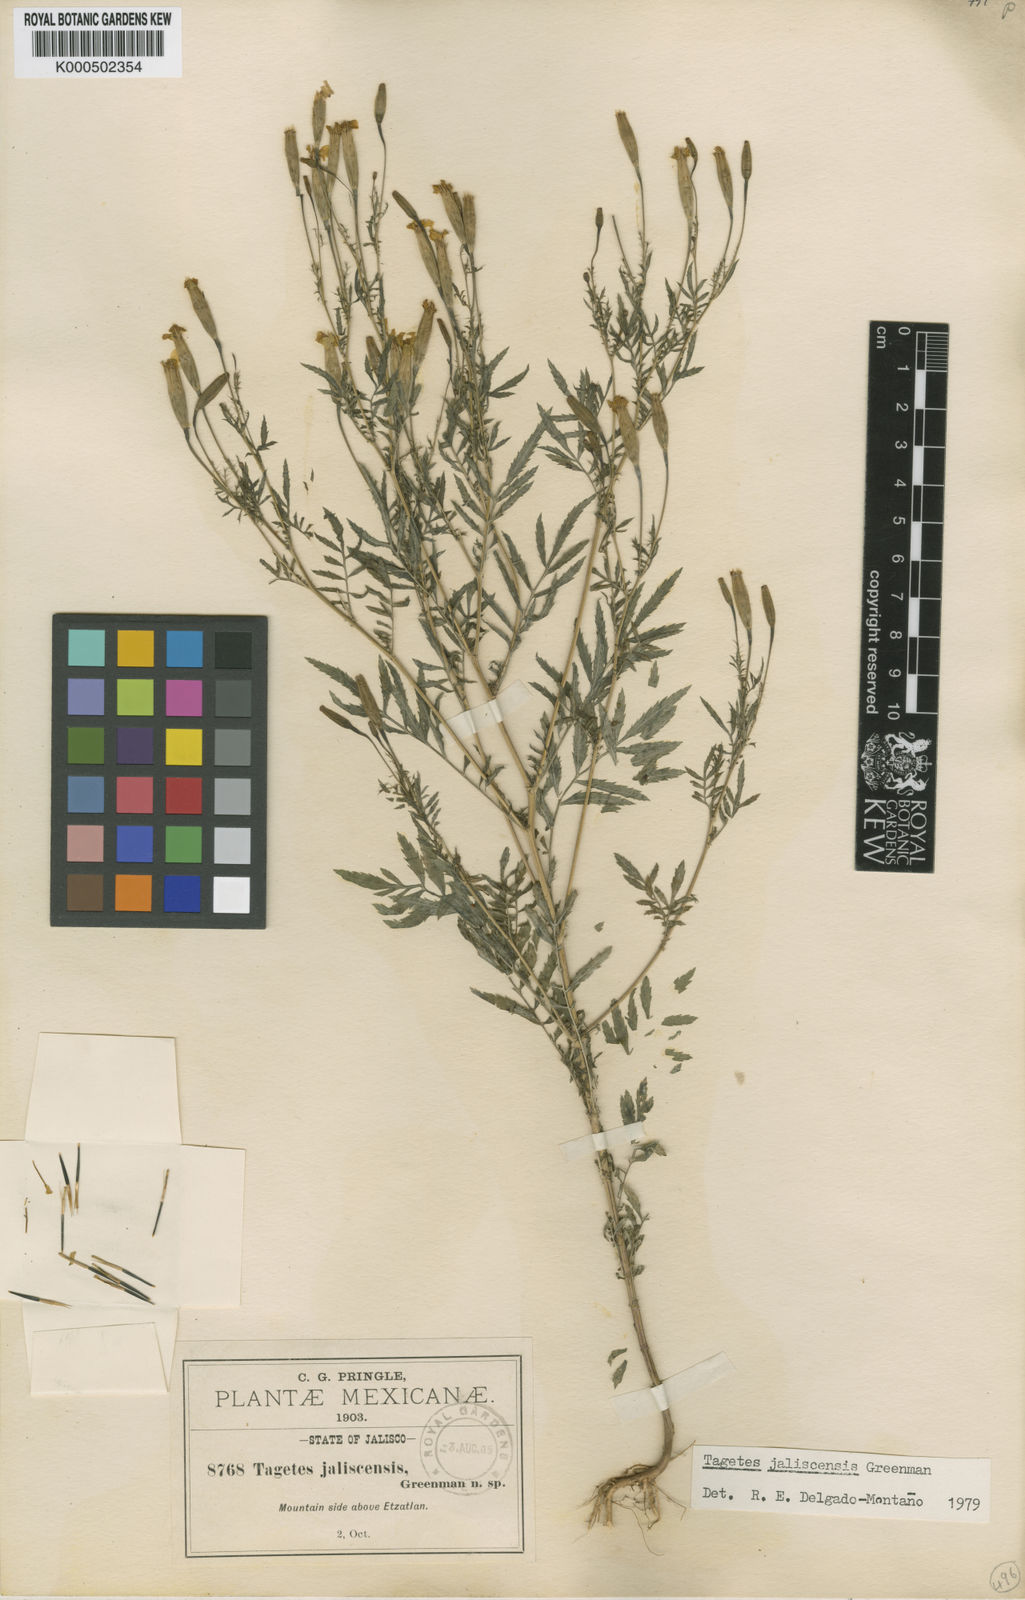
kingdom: Plantae
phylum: Tracheophyta
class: Magnoliopsida
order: Asterales
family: Asteraceae
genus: Tagetes
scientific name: Tagetes triradiata
